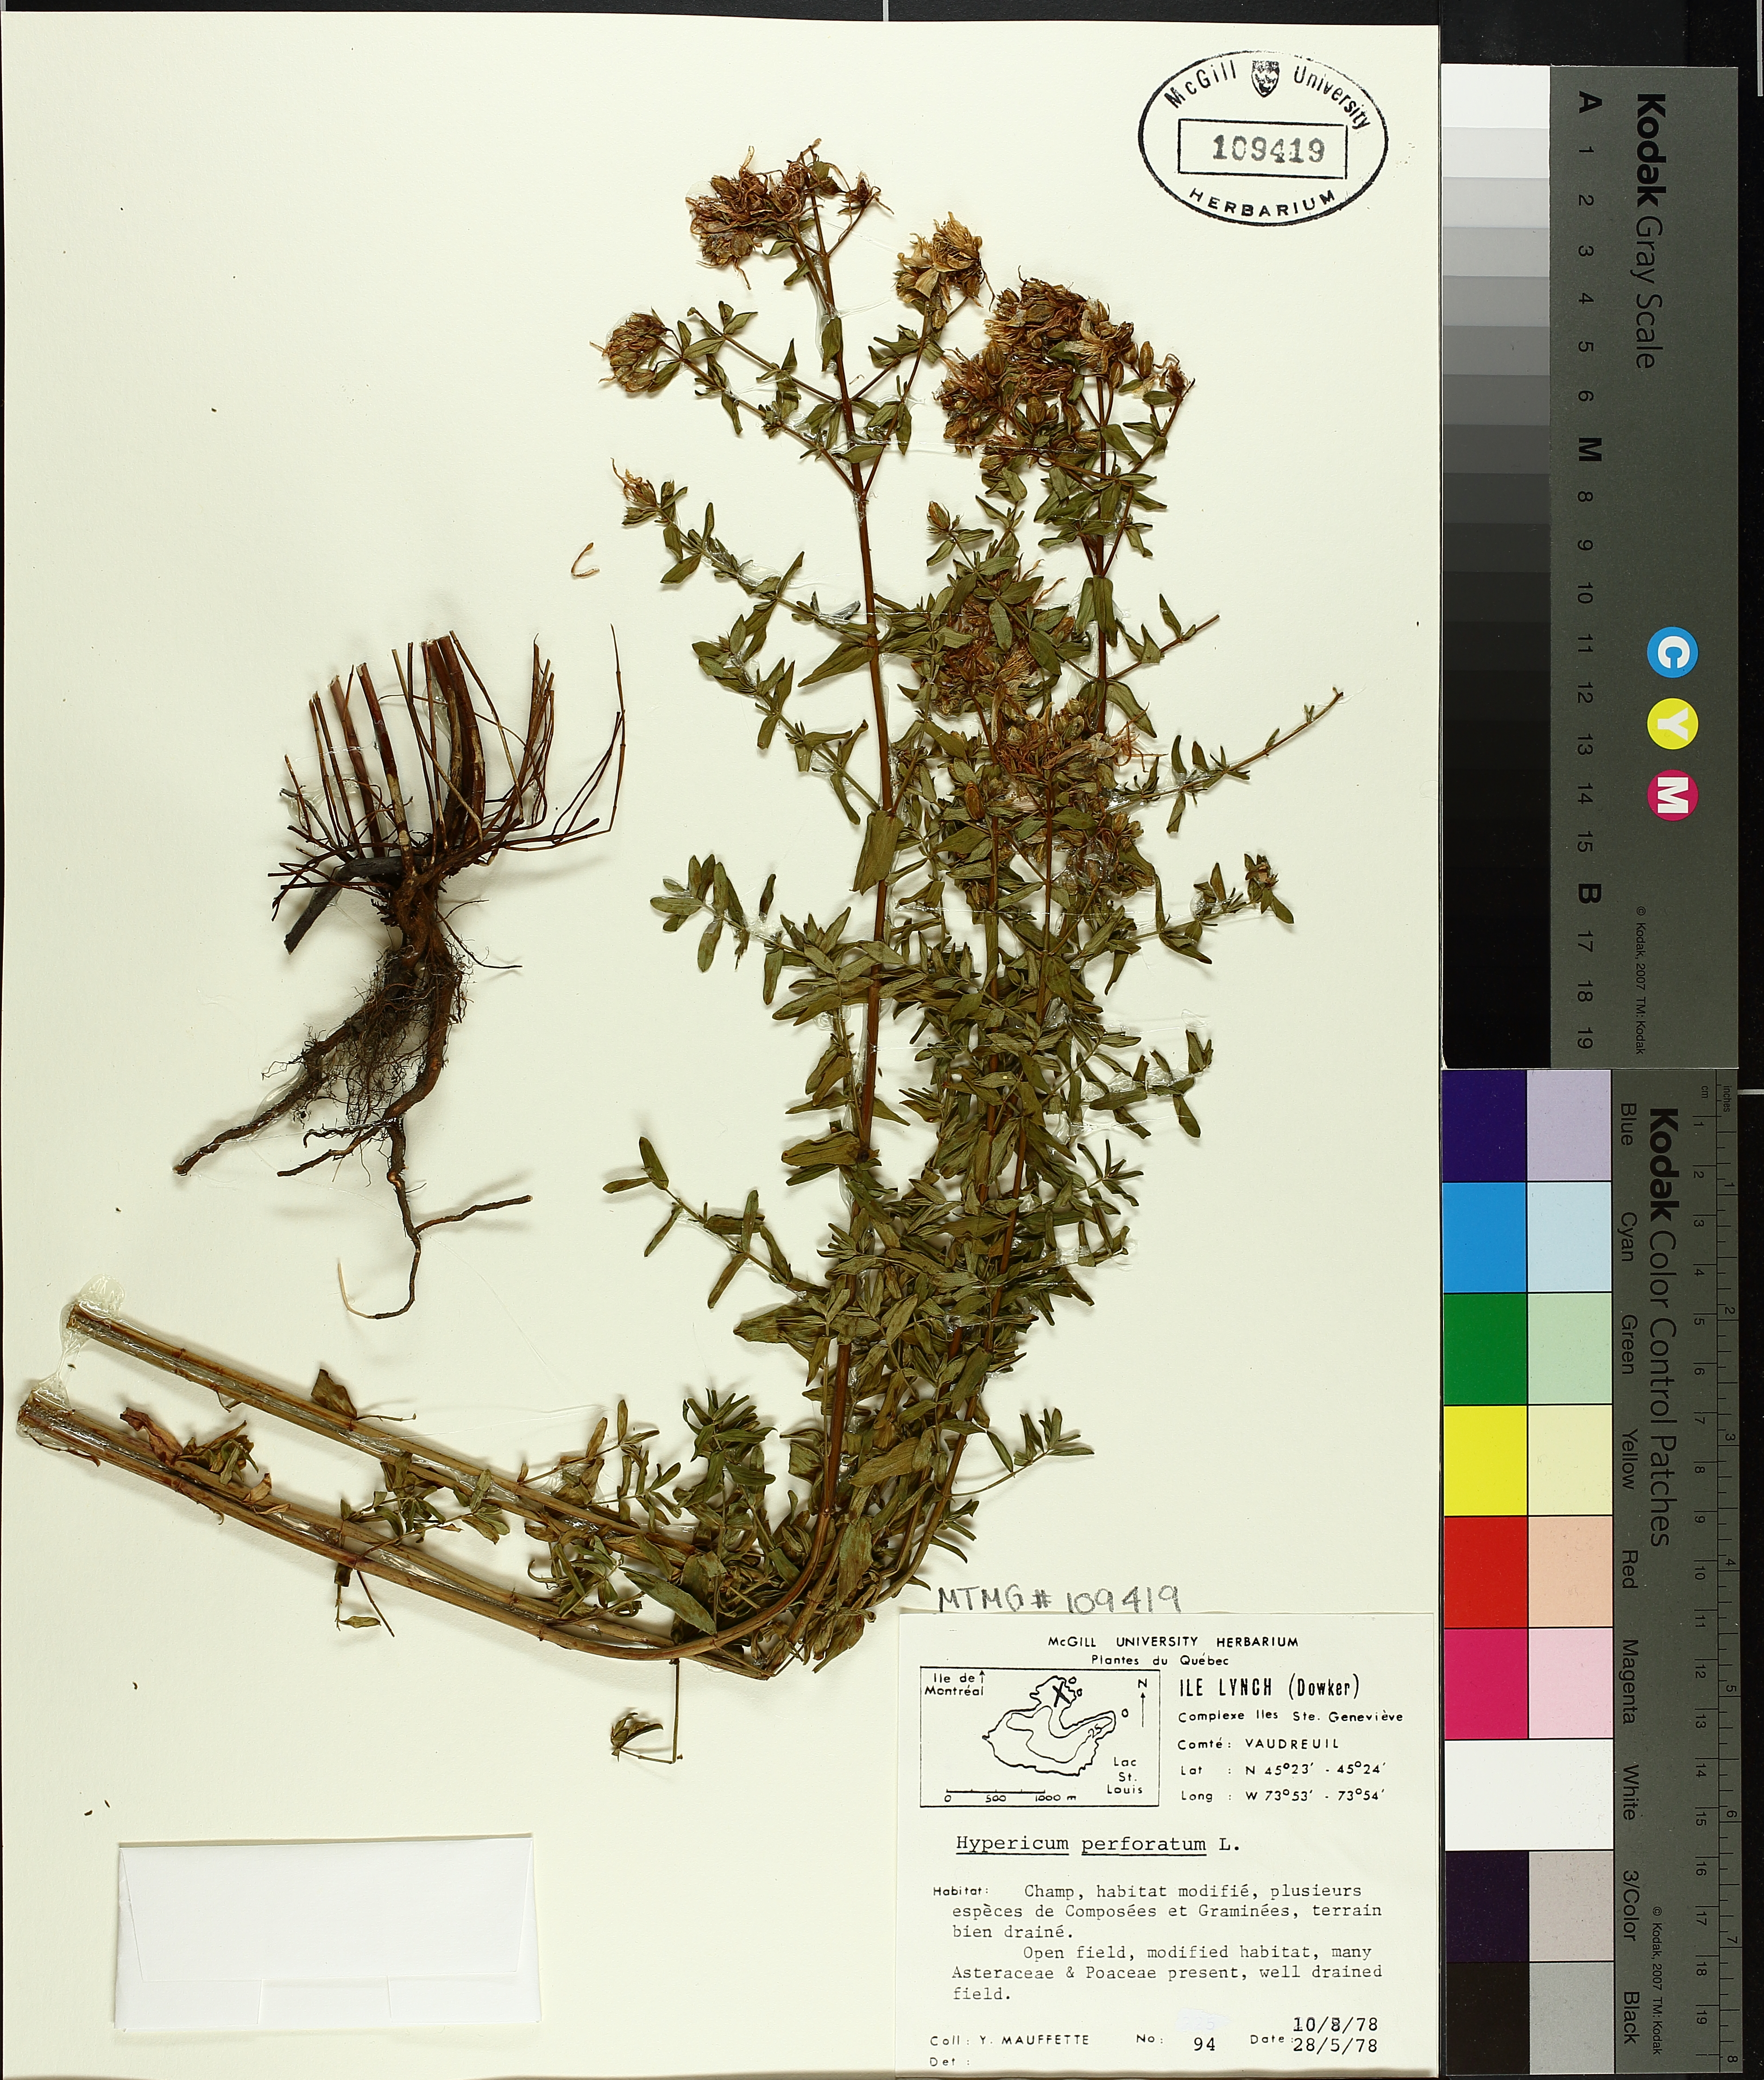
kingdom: Plantae
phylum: Tracheophyta
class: Magnoliopsida
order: Malpighiales
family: Hypericaceae
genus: Hypericum
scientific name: Hypericum perforatum
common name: Common st. johnswort
